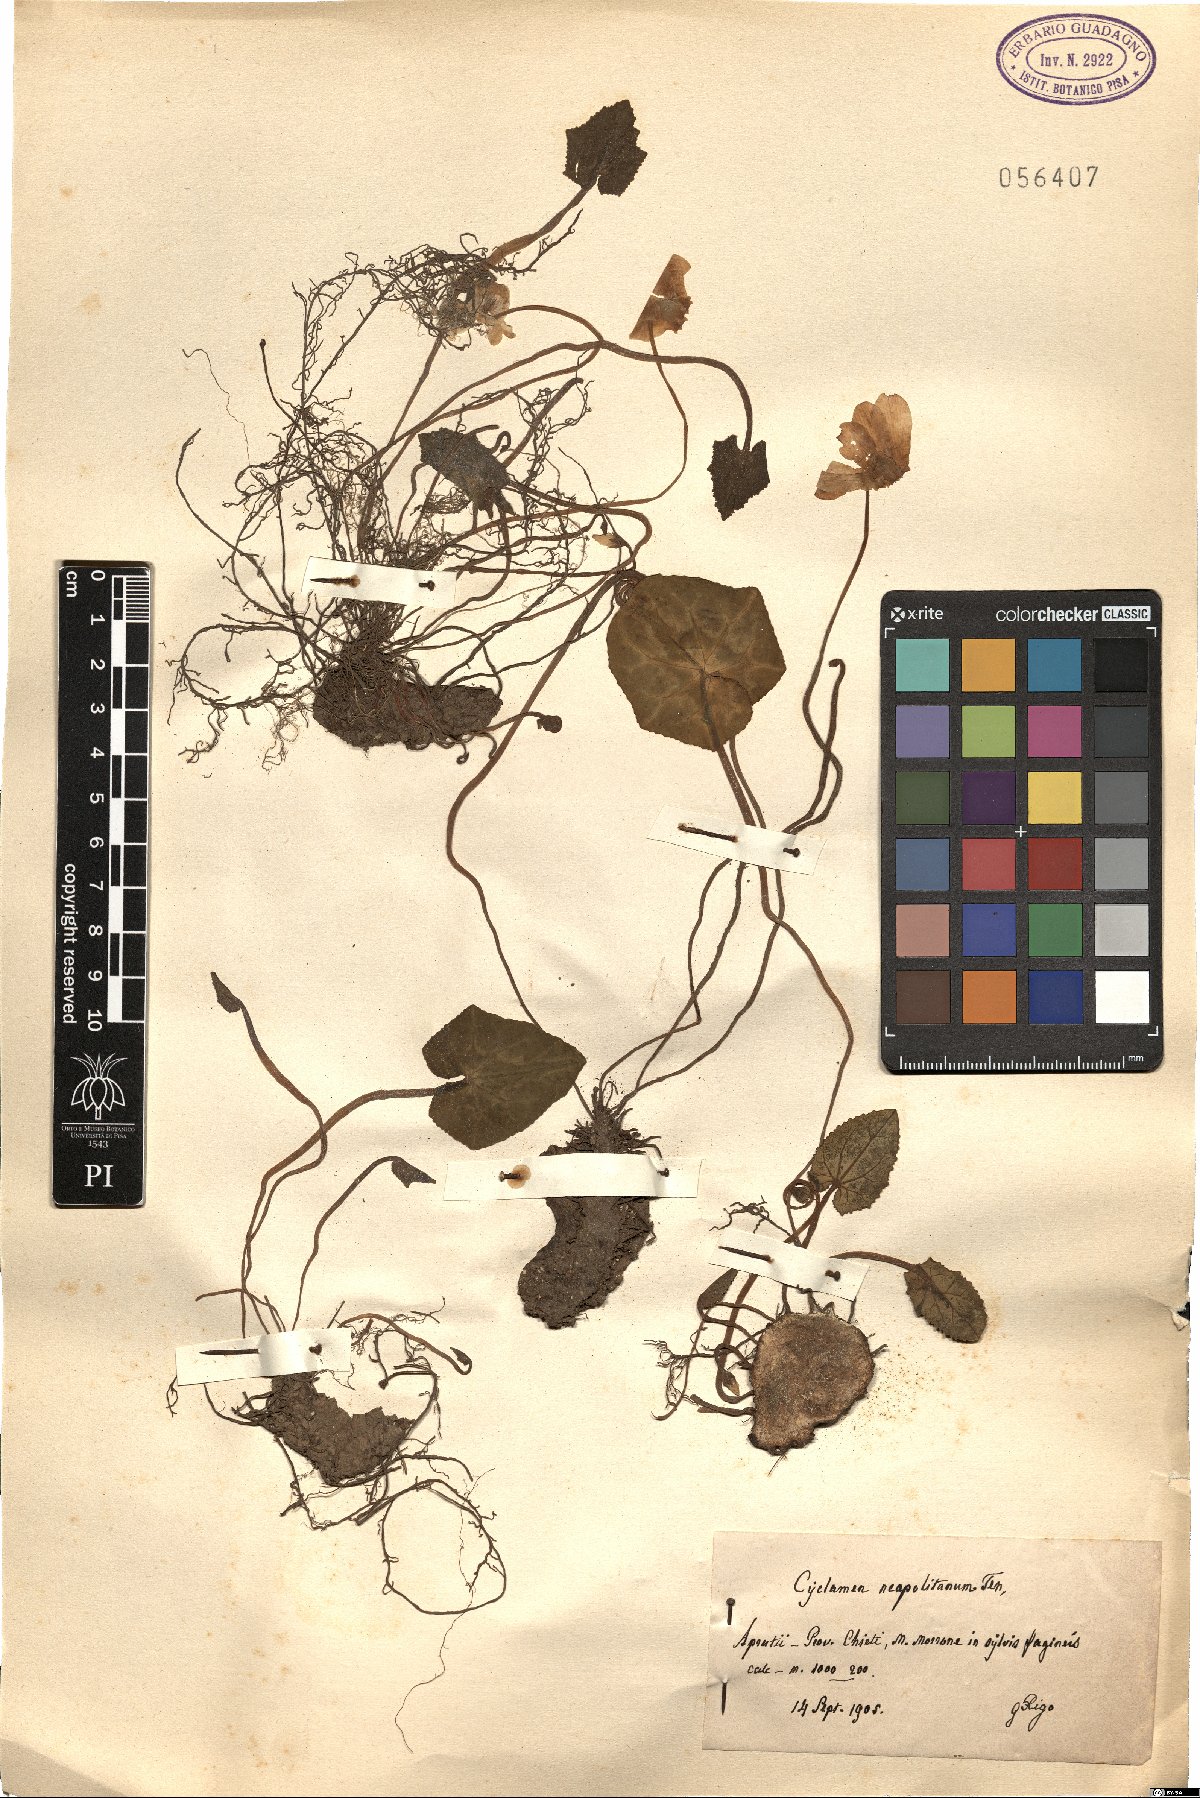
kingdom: Plantae
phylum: Tracheophyta
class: Magnoliopsida
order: Ericales
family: Primulaceae
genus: Cyclamen
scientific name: Cyclamen hederifolium
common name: Sowbread
